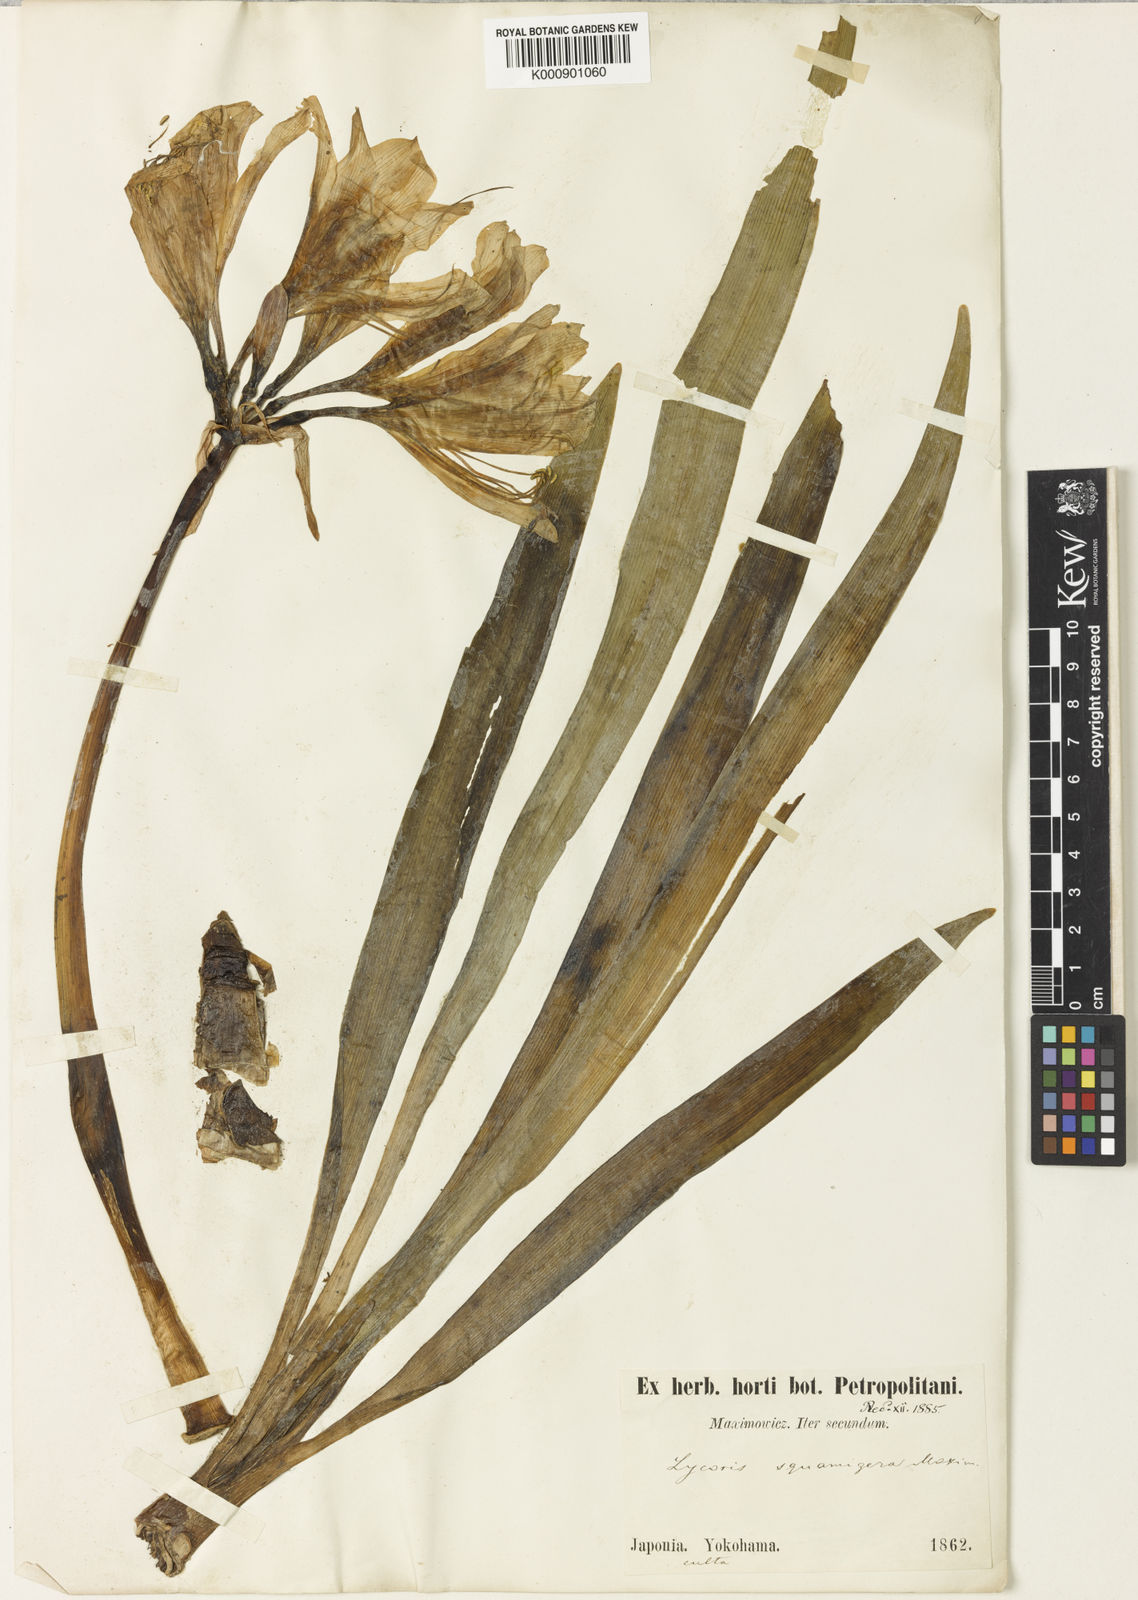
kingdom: Plantae
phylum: Tracheophyta
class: Liliopsida
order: Asparagales
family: Amaryllidaceae
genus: Lycoris
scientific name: Lycoris squamigera
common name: Magic-lily
